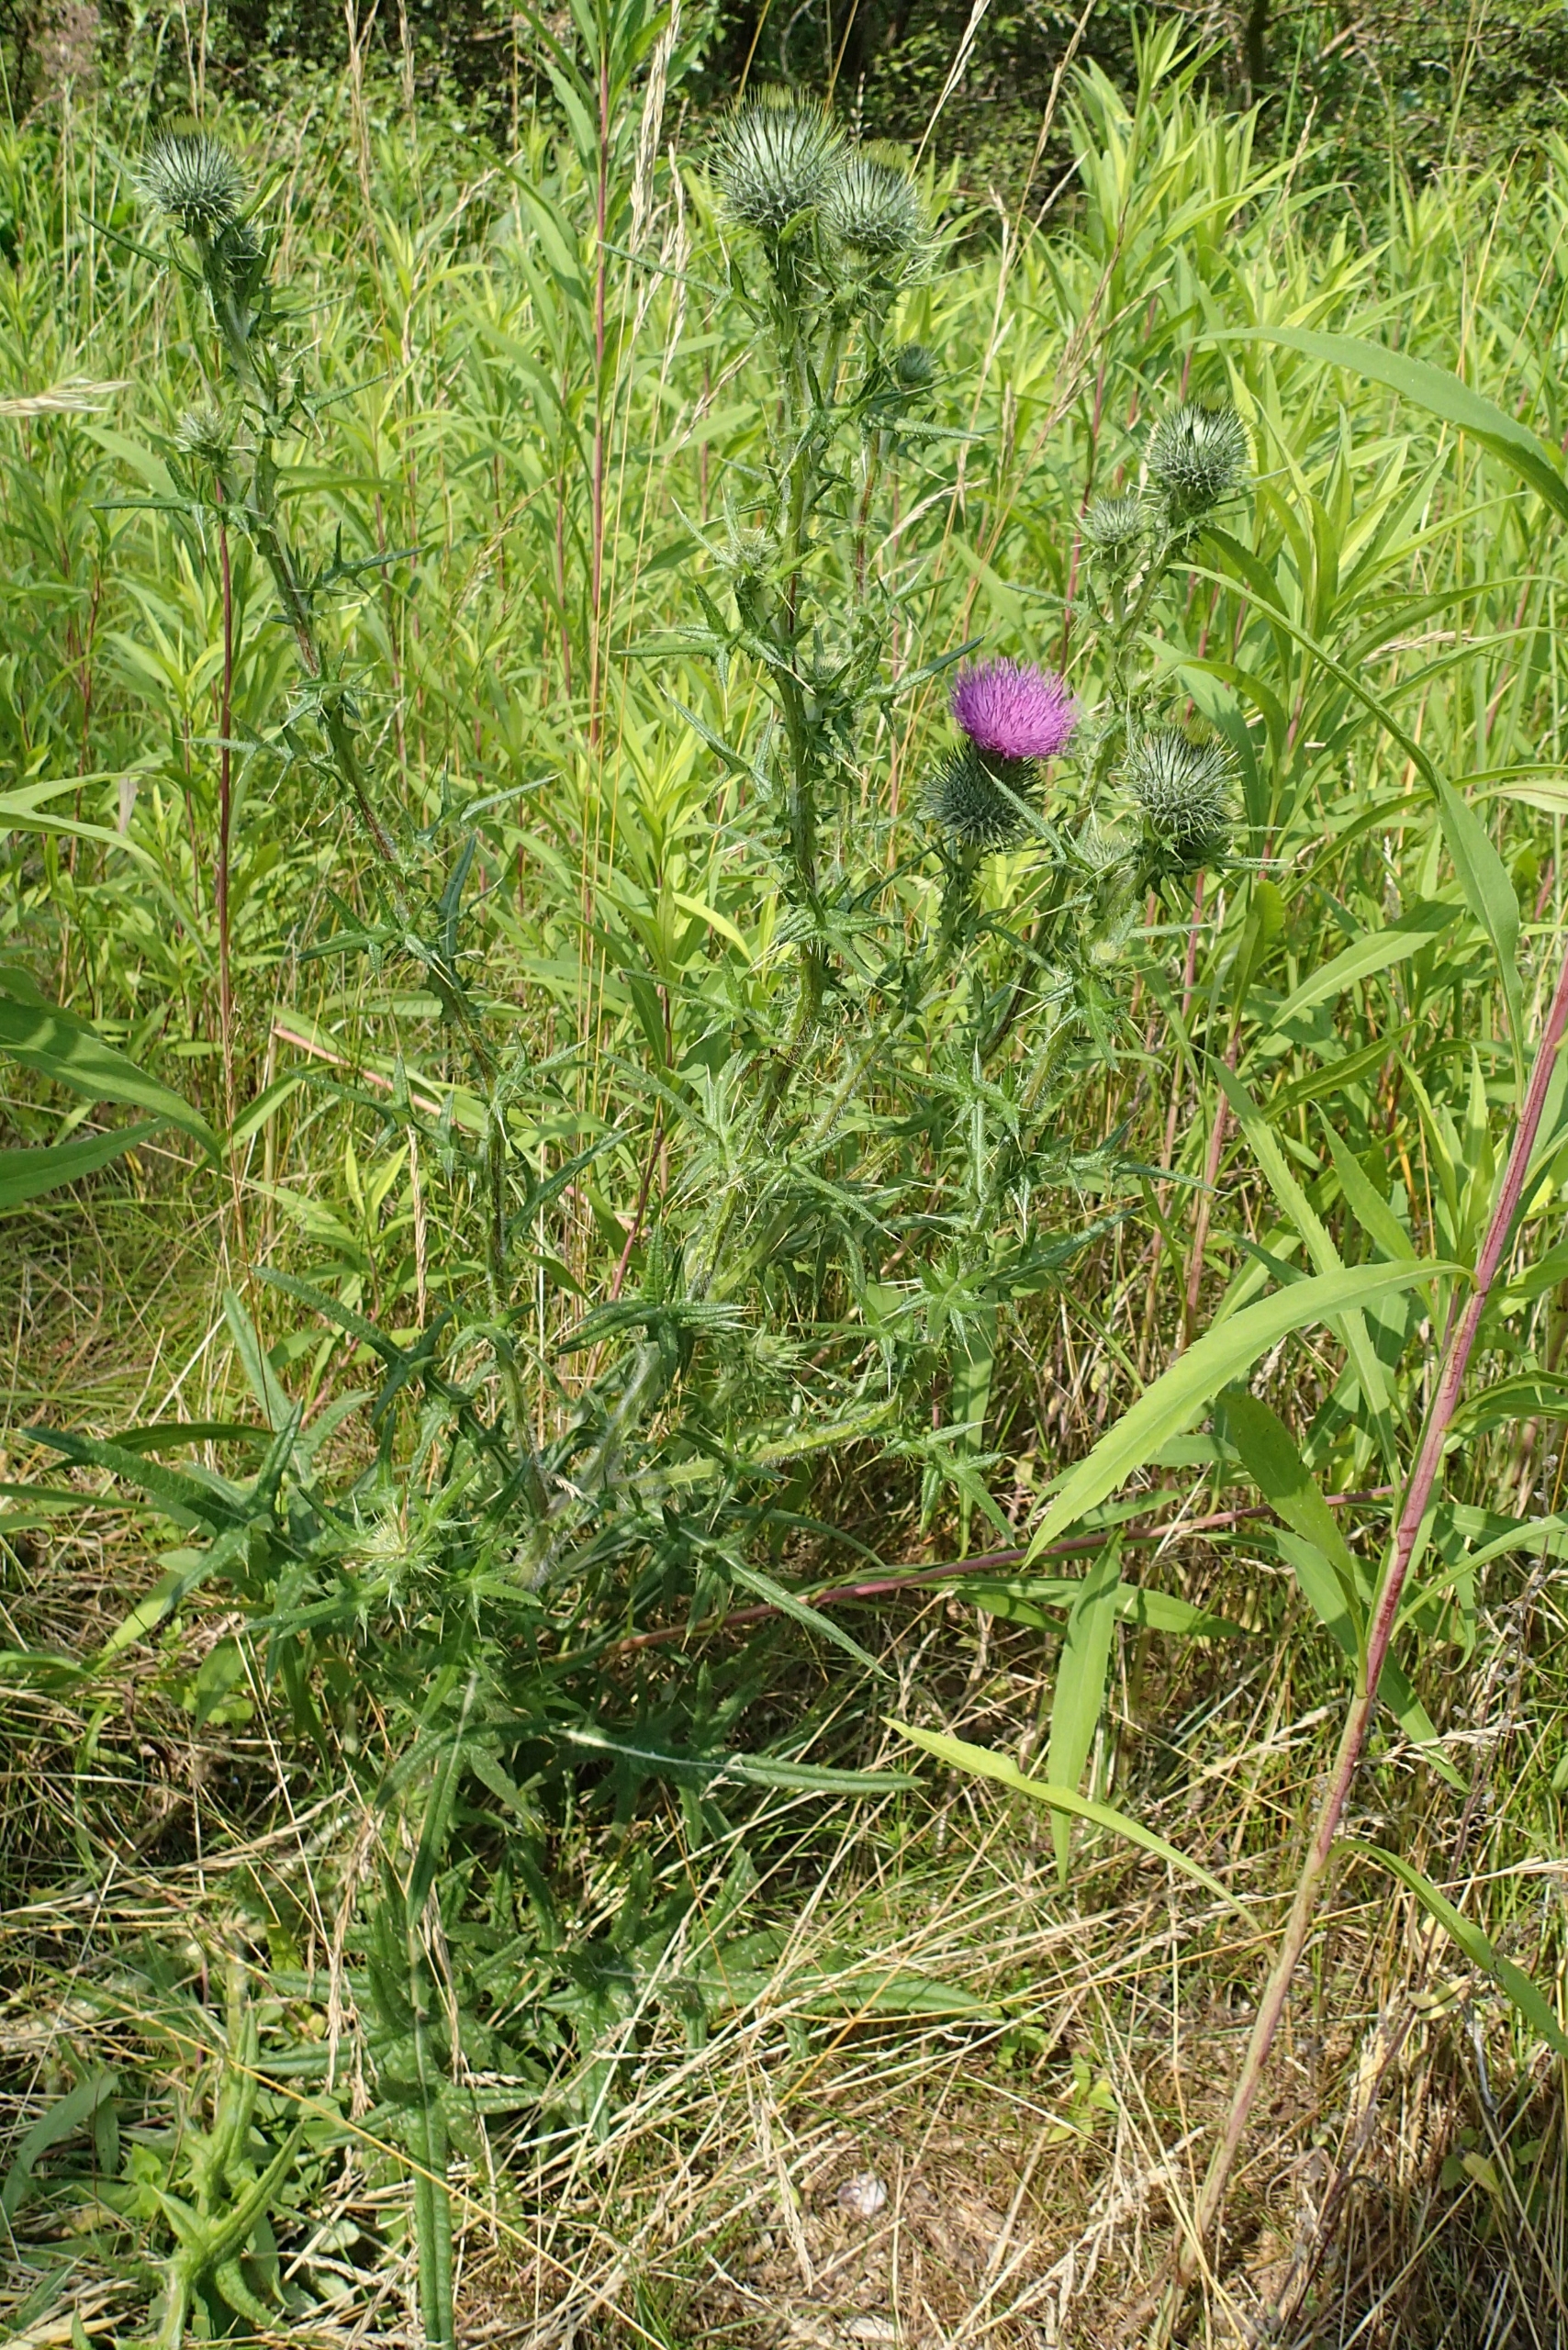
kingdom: Plantae
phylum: Tracheophyta
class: Magnoliopsida
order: Asterales
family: Asteraceae
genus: Cirsium
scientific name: Cirsium vulgare
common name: Horse-tidsel
